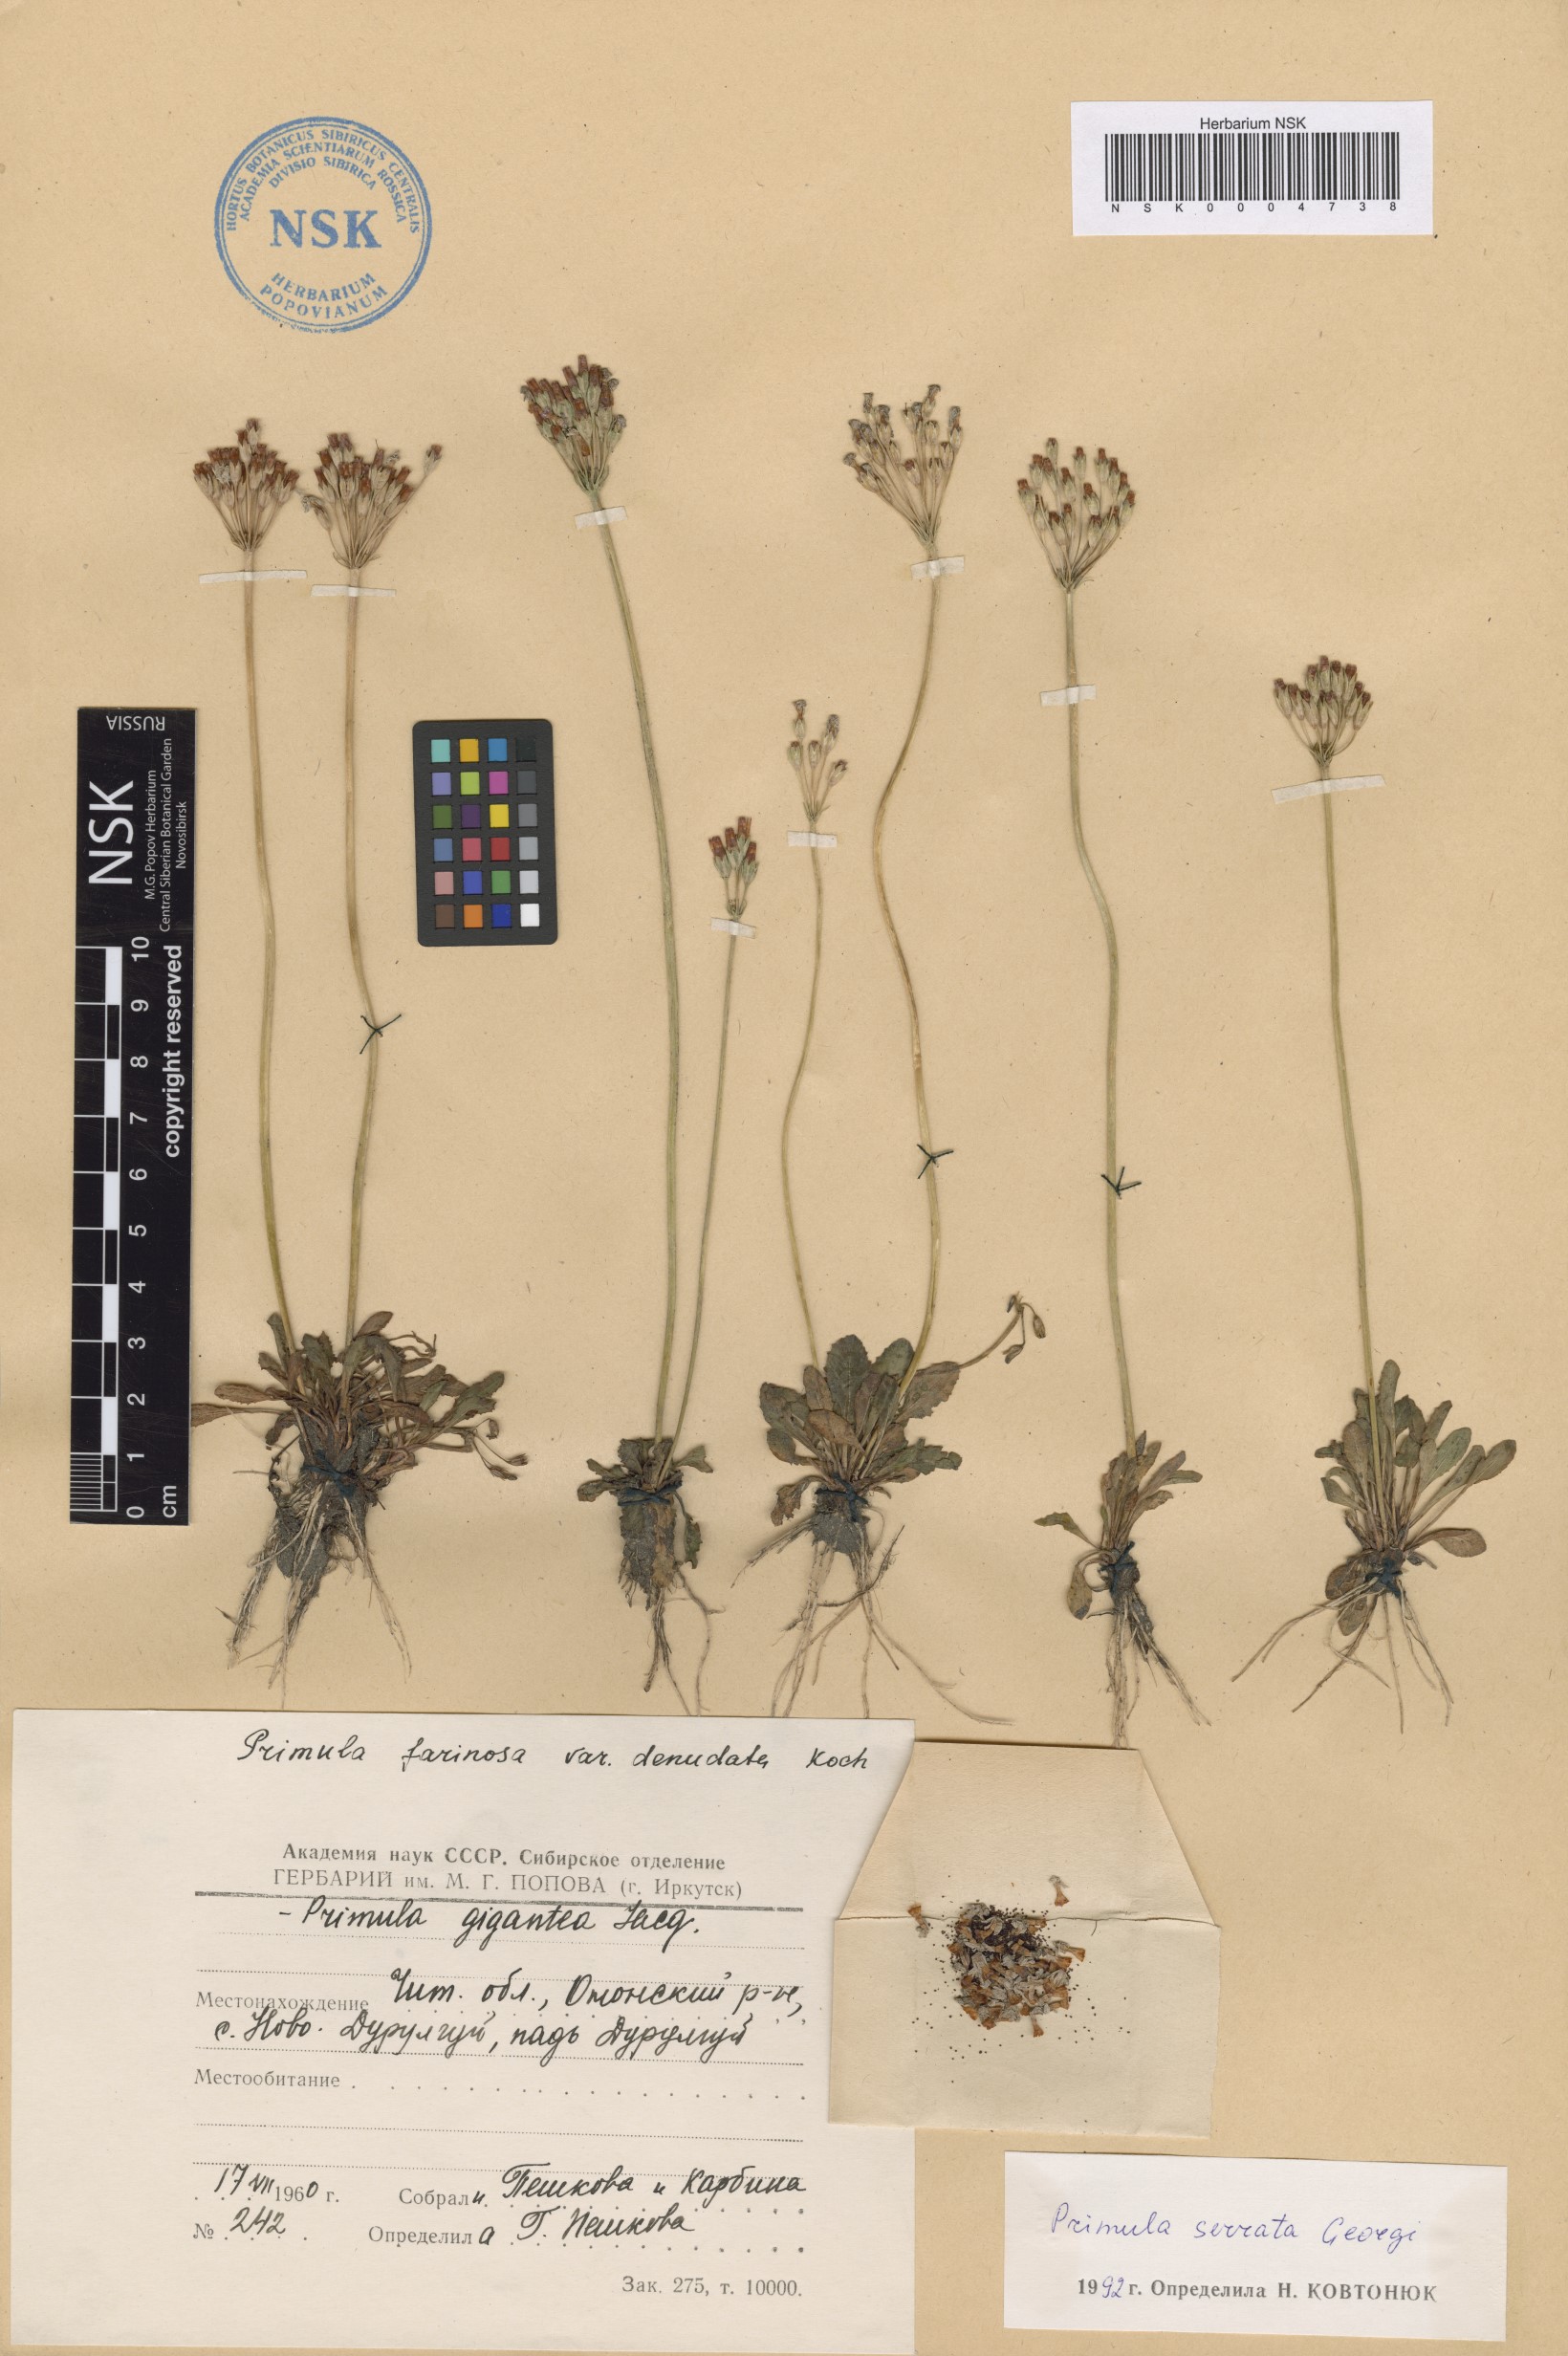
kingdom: Plantae
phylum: Tracheophyta
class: Magnoliopsida
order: Ericales
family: Primulaceae
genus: Primula
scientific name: Primula serrata
